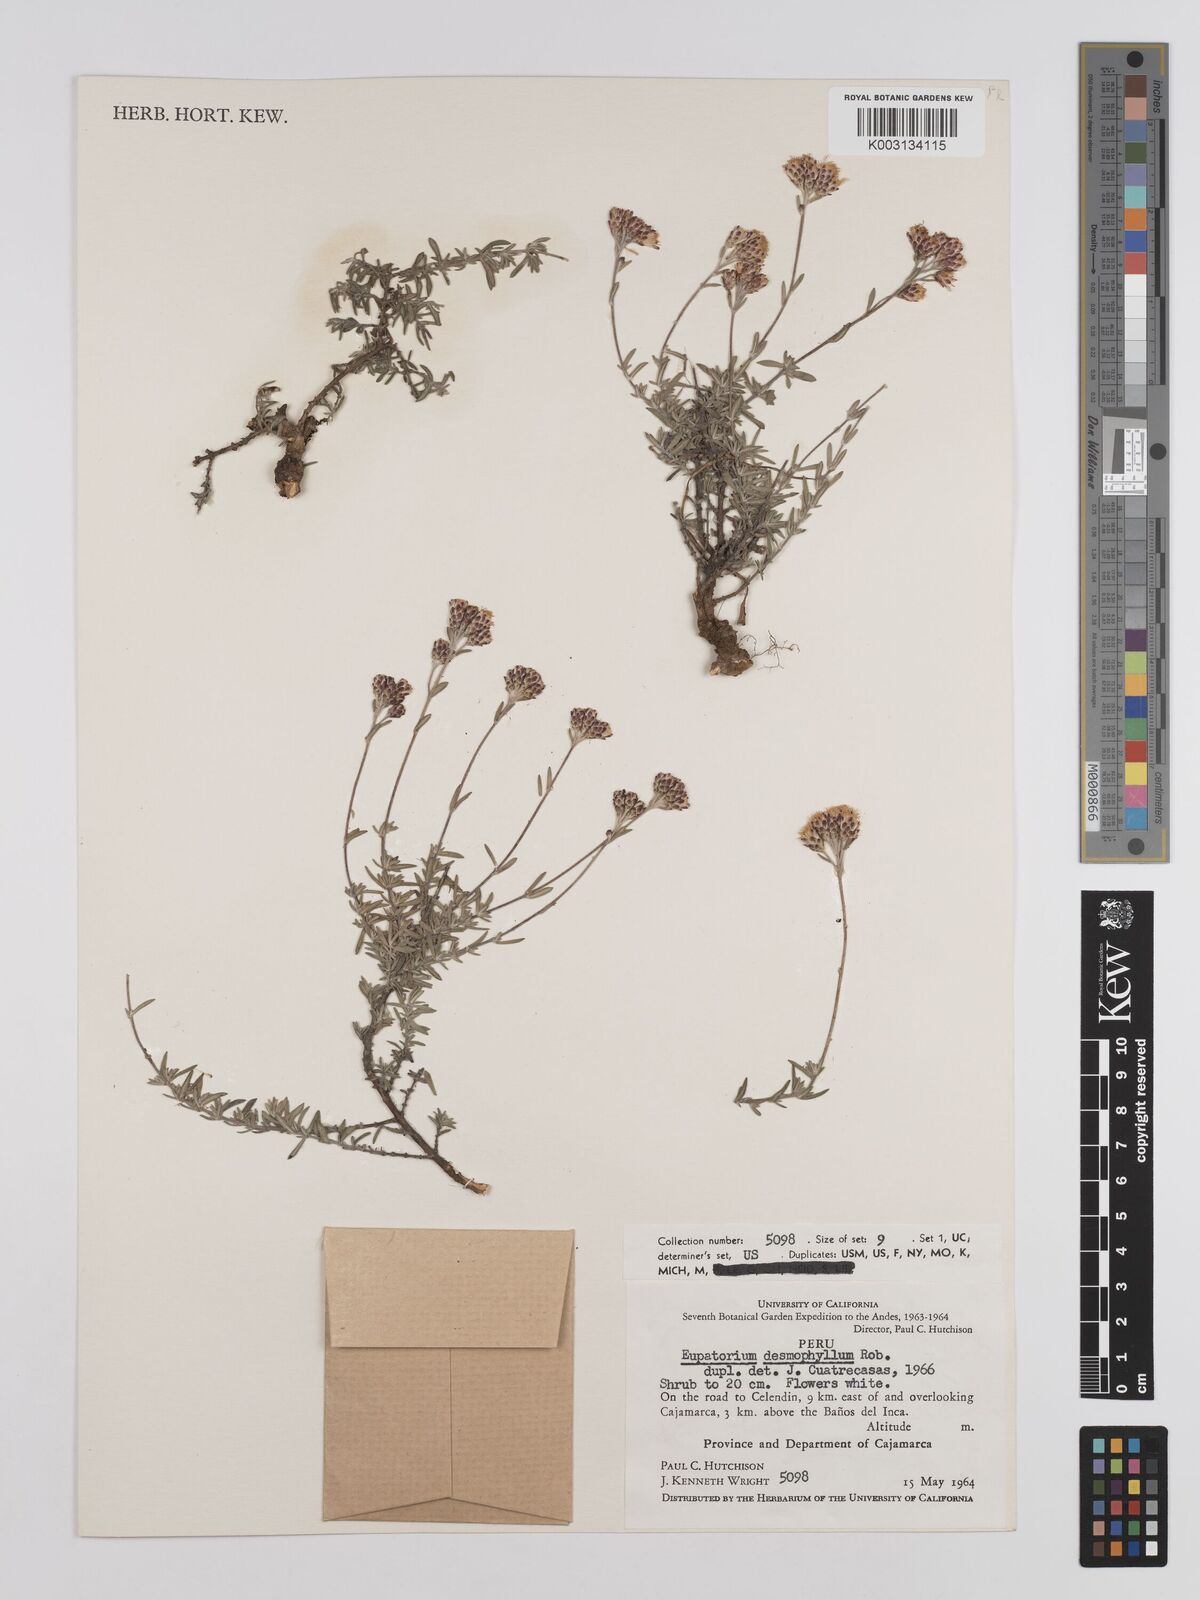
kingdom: Plantae
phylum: Tracheophyta
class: Magnoliopsida
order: Asterales
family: Asteraceae
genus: Cronquistianthus
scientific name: Cronquistianthus desmophyllus
